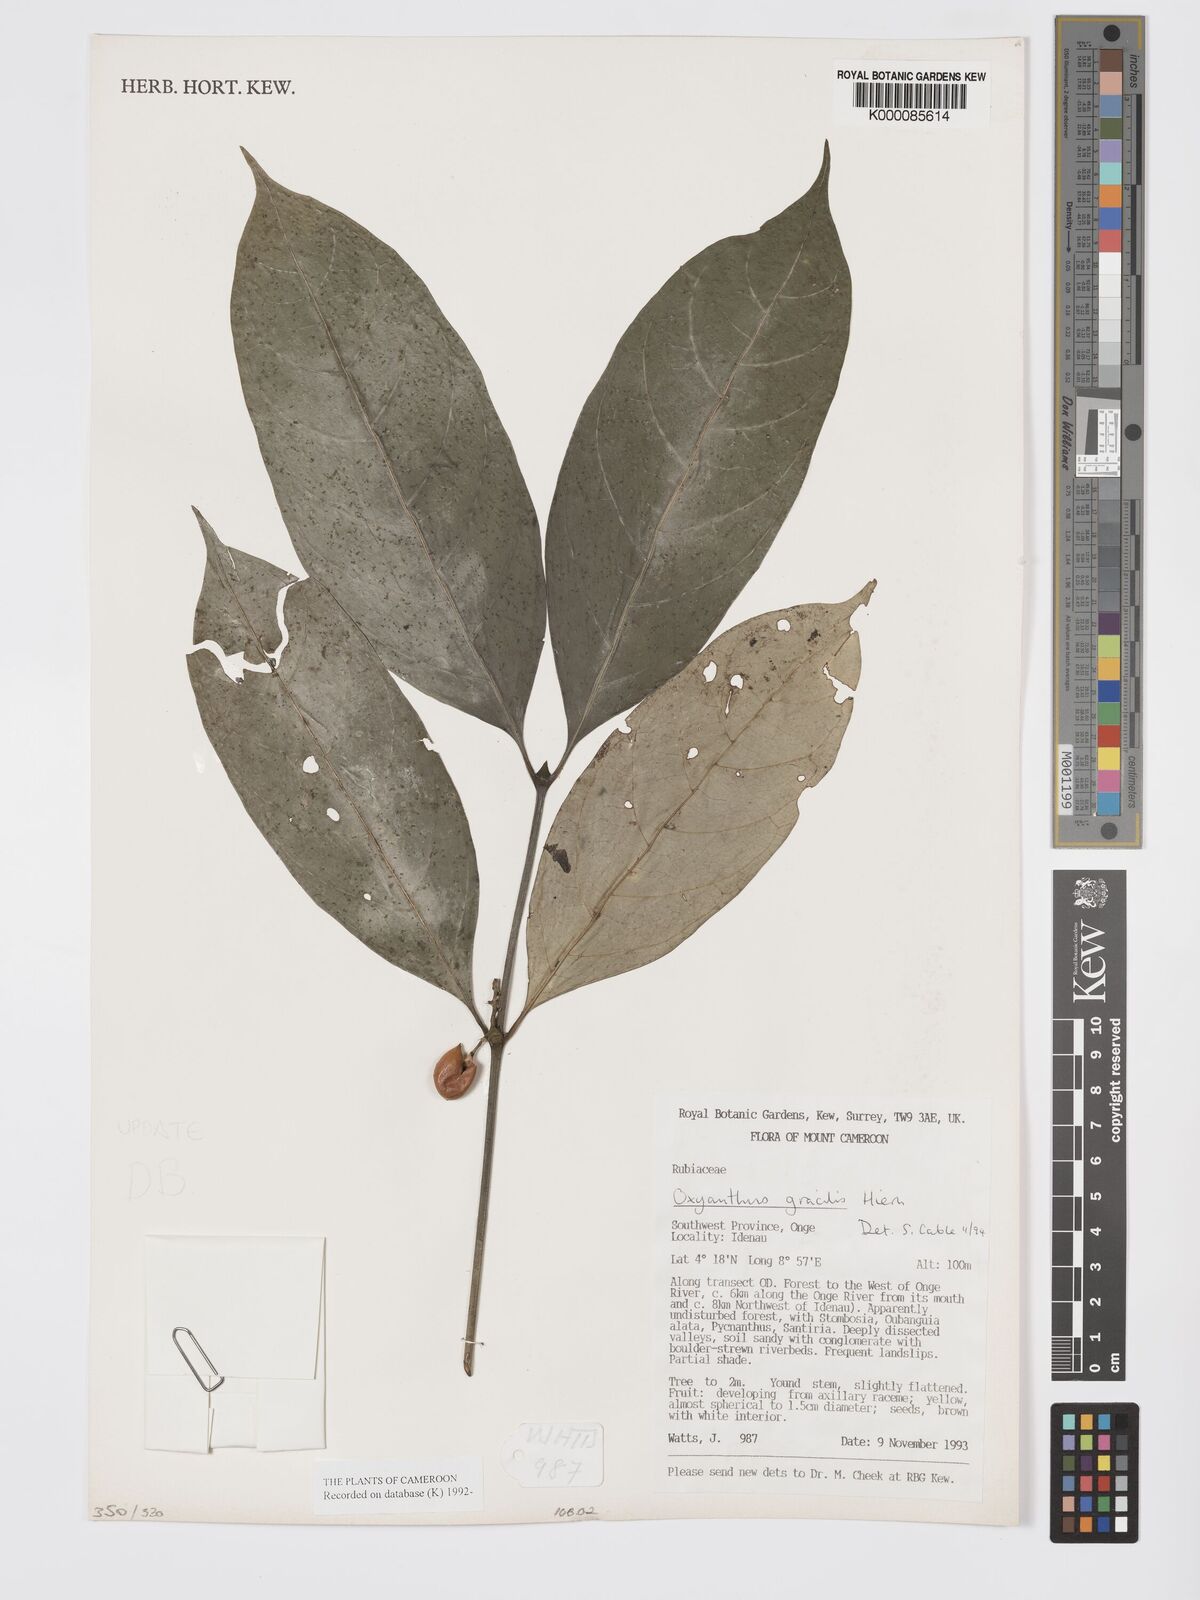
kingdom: Plantae
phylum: Tracheophyta
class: Magnoliopsida
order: Gentianales
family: Rubiaceae
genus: Oxyanthus
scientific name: Oxyanthus gracilis
